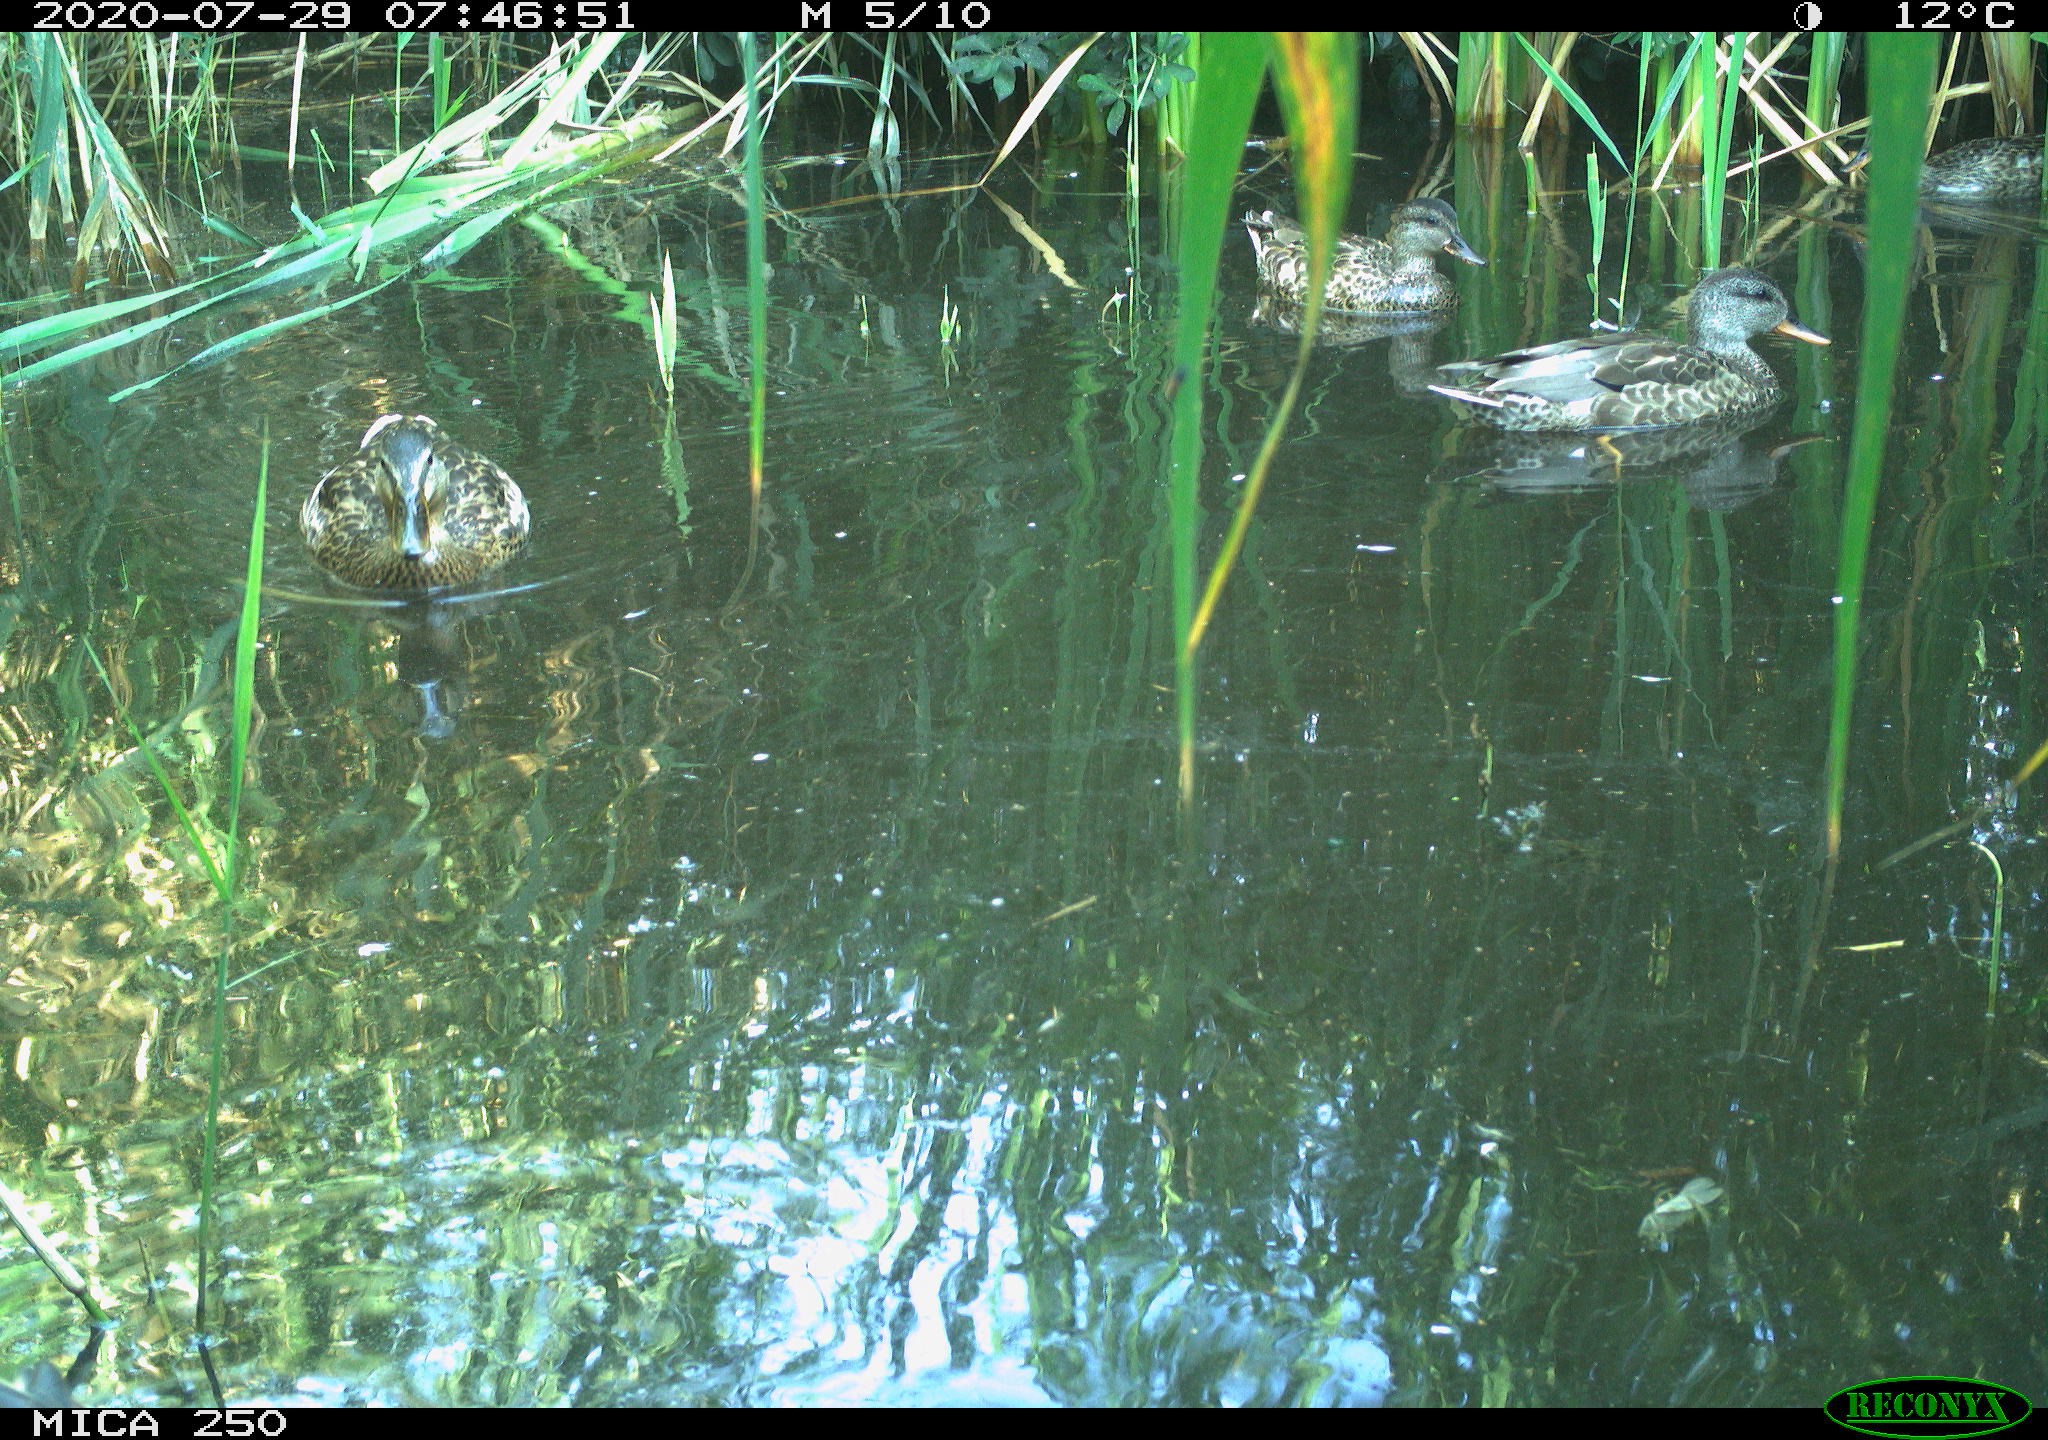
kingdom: Animalia
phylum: Chordata
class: Aves
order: Anseriformes
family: Anatidae
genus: Mareca
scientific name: Mareca strepera
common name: Gadwall
